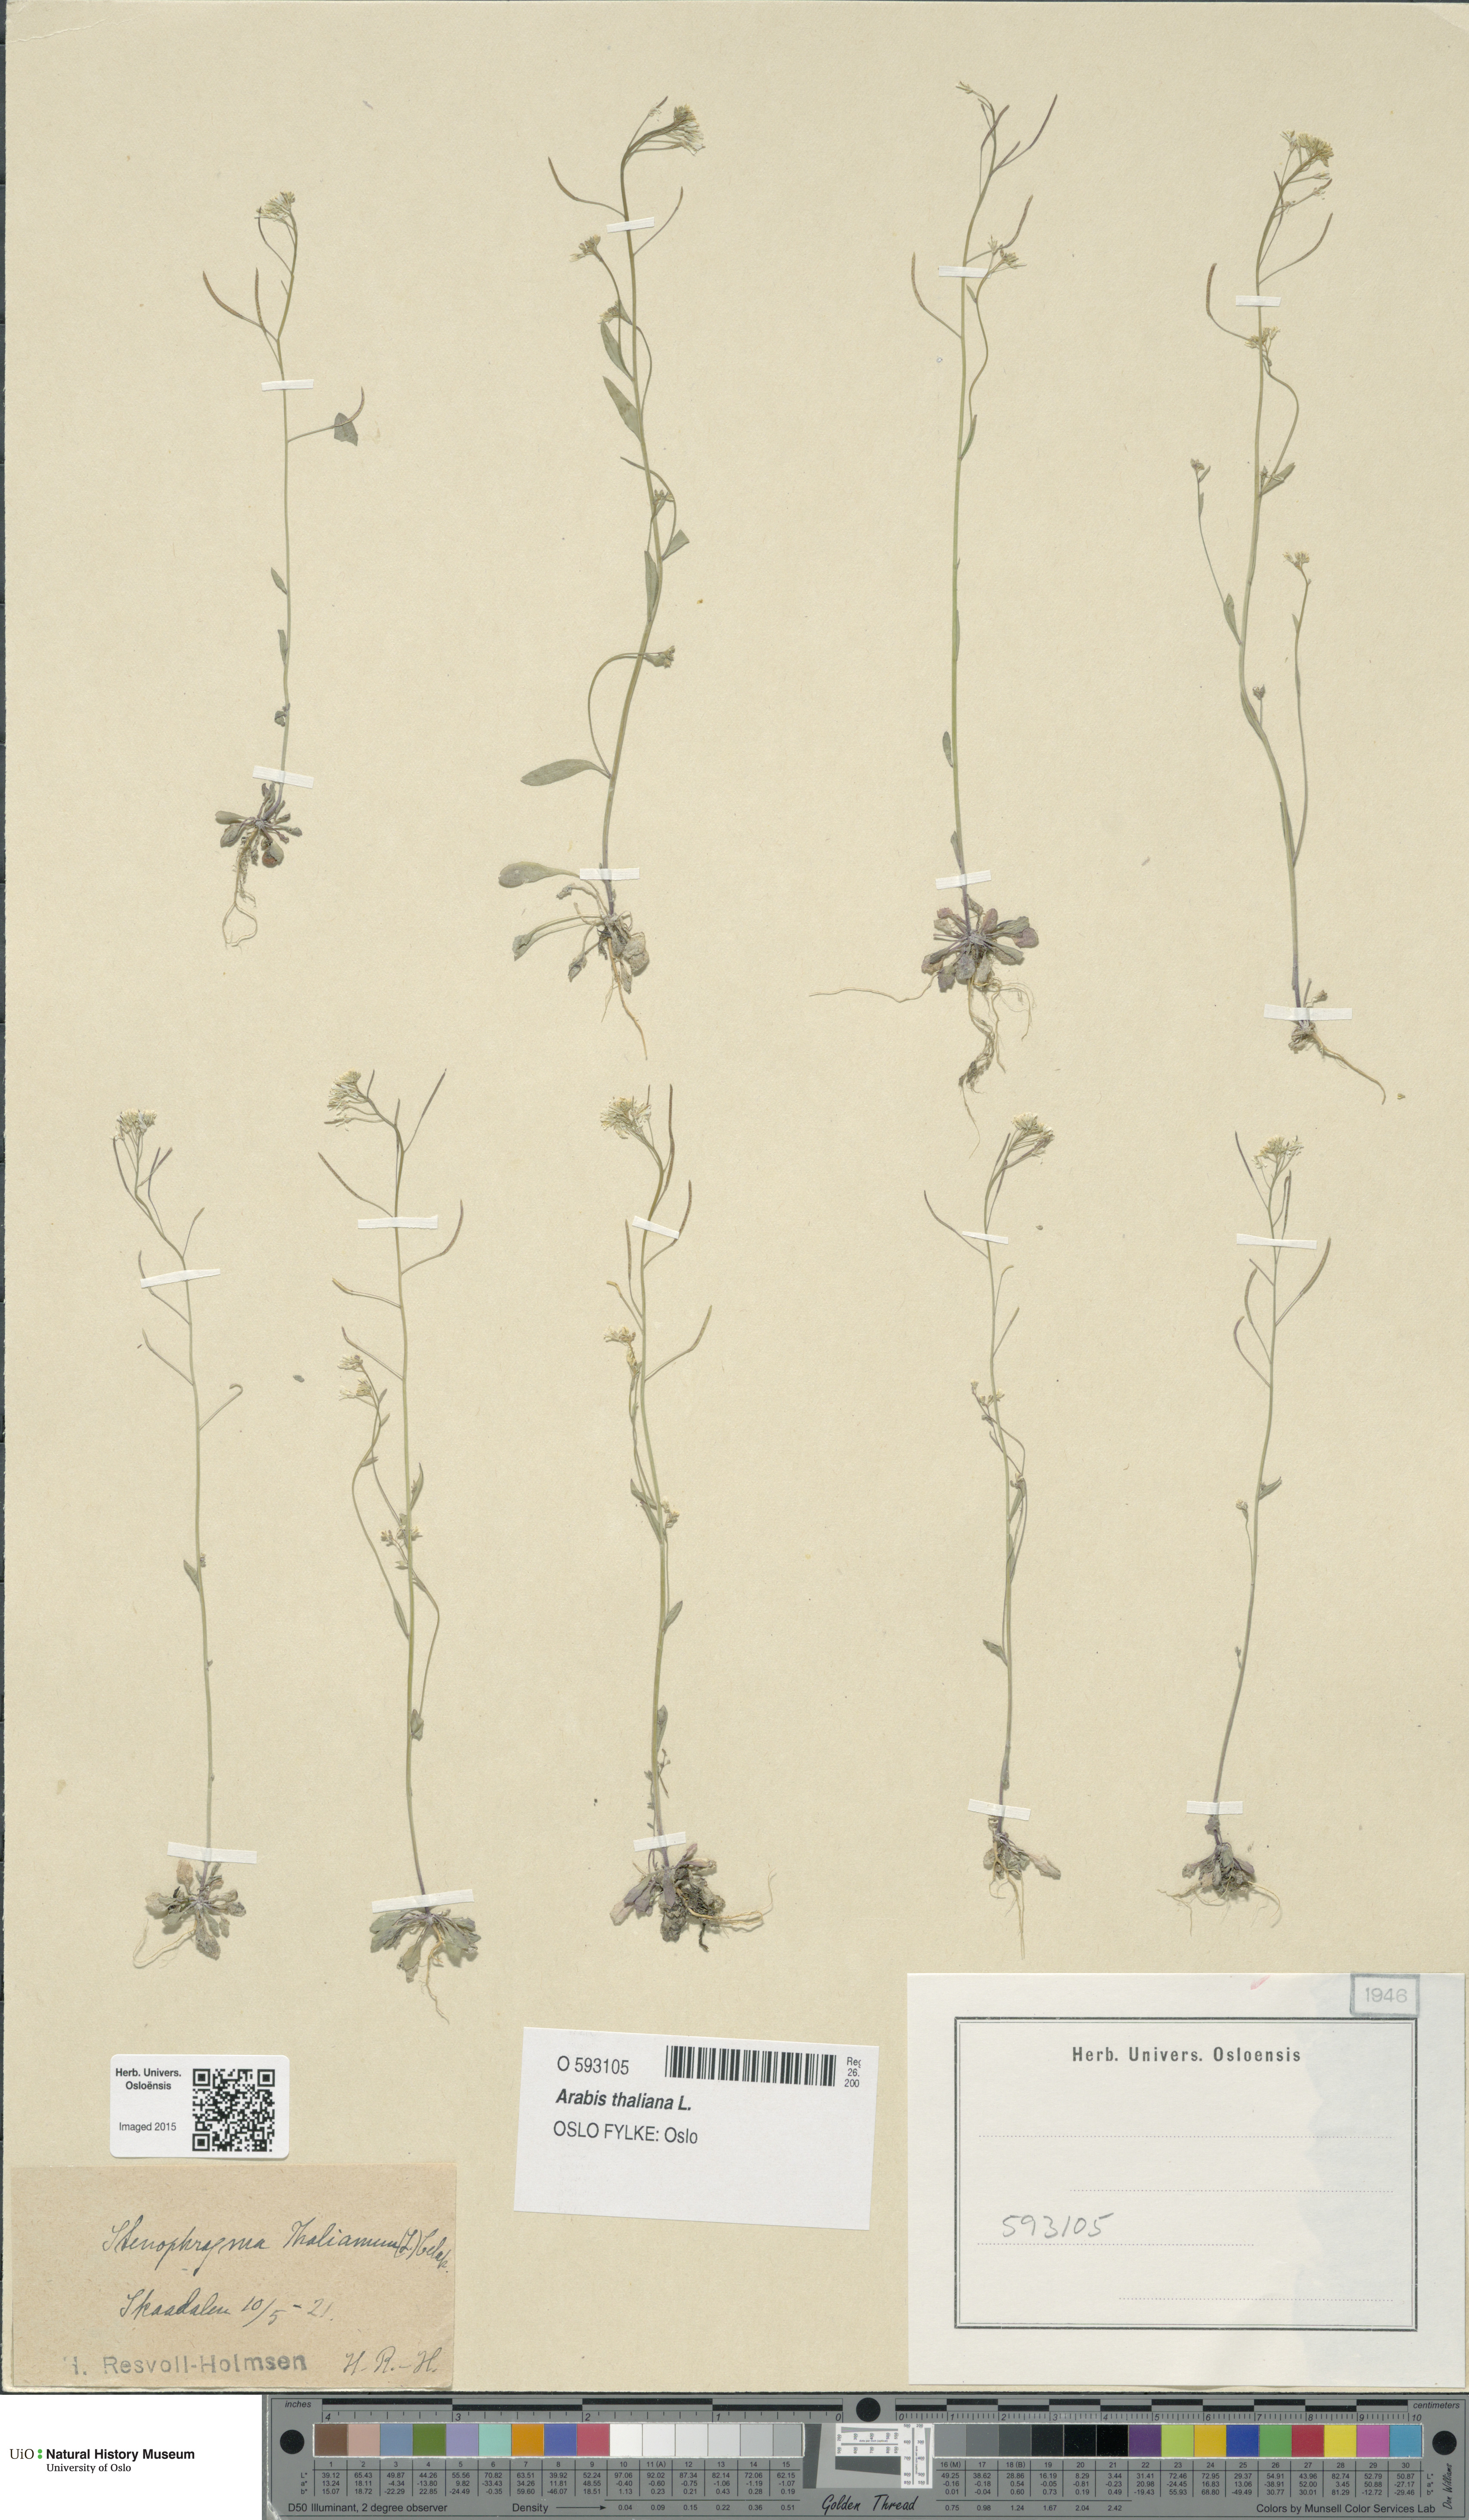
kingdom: Plantae
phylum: Tracheophyta
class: Magnoliopsida
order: Brassicales
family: Brassicaceae
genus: Arabidopsis
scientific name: Arabidopsis thaliana
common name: Thale cress
